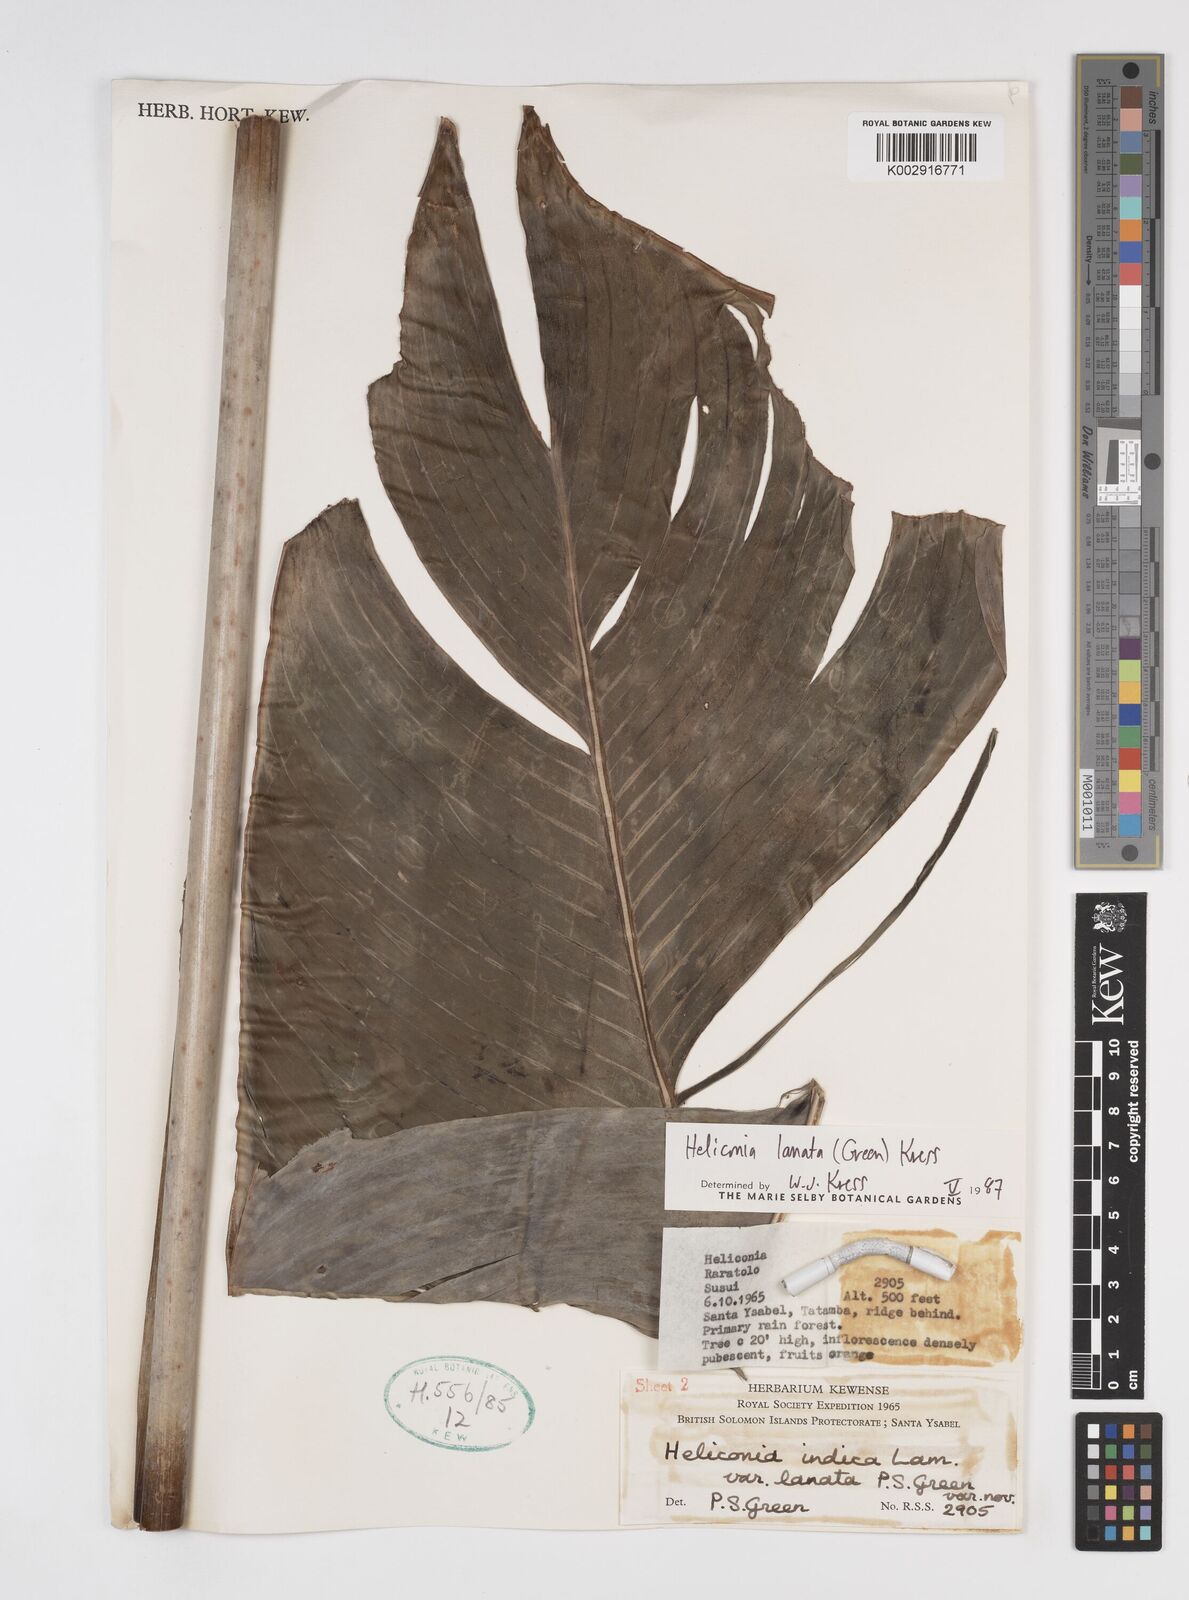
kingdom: Plantae
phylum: Tracheophyta
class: Liliopsida
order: Zingiberales
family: Heliconiaceae
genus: Heliconia
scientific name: Heliconia lanata
